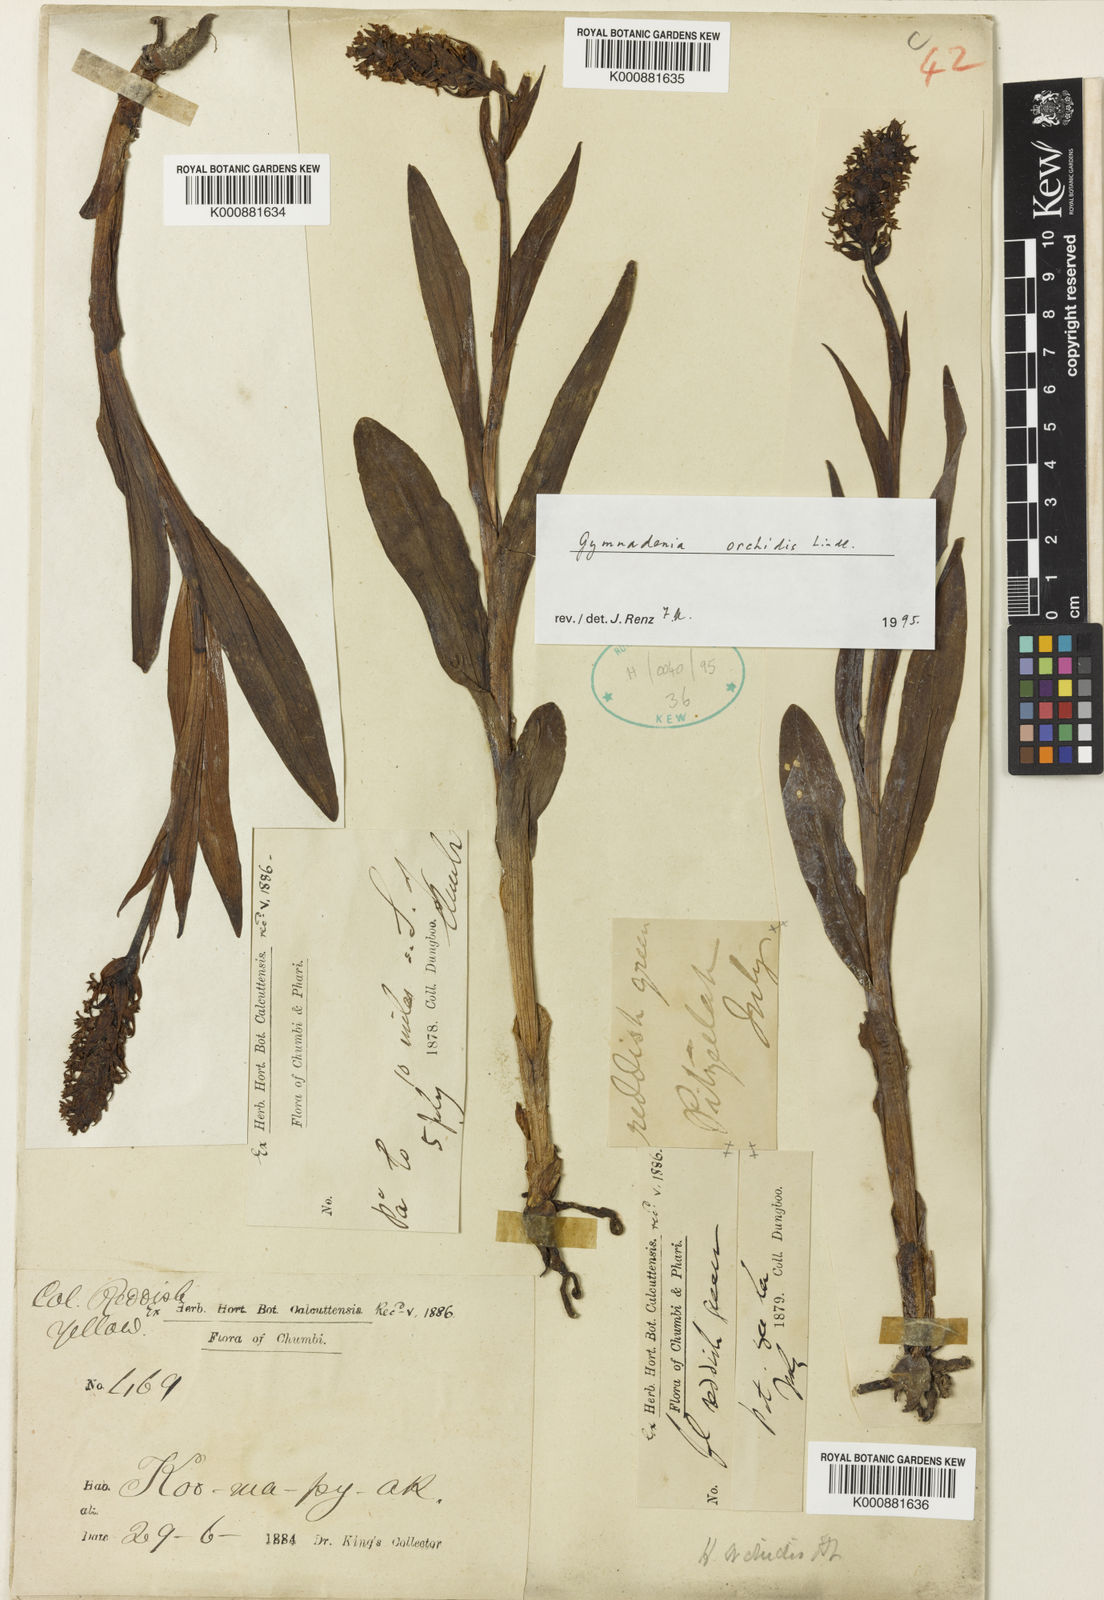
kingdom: Plantae
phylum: Tracheophyta
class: Liliopsida
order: Asparagales
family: Orchidaceae
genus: Gymnadenia
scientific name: Gymnadenia orchidis
